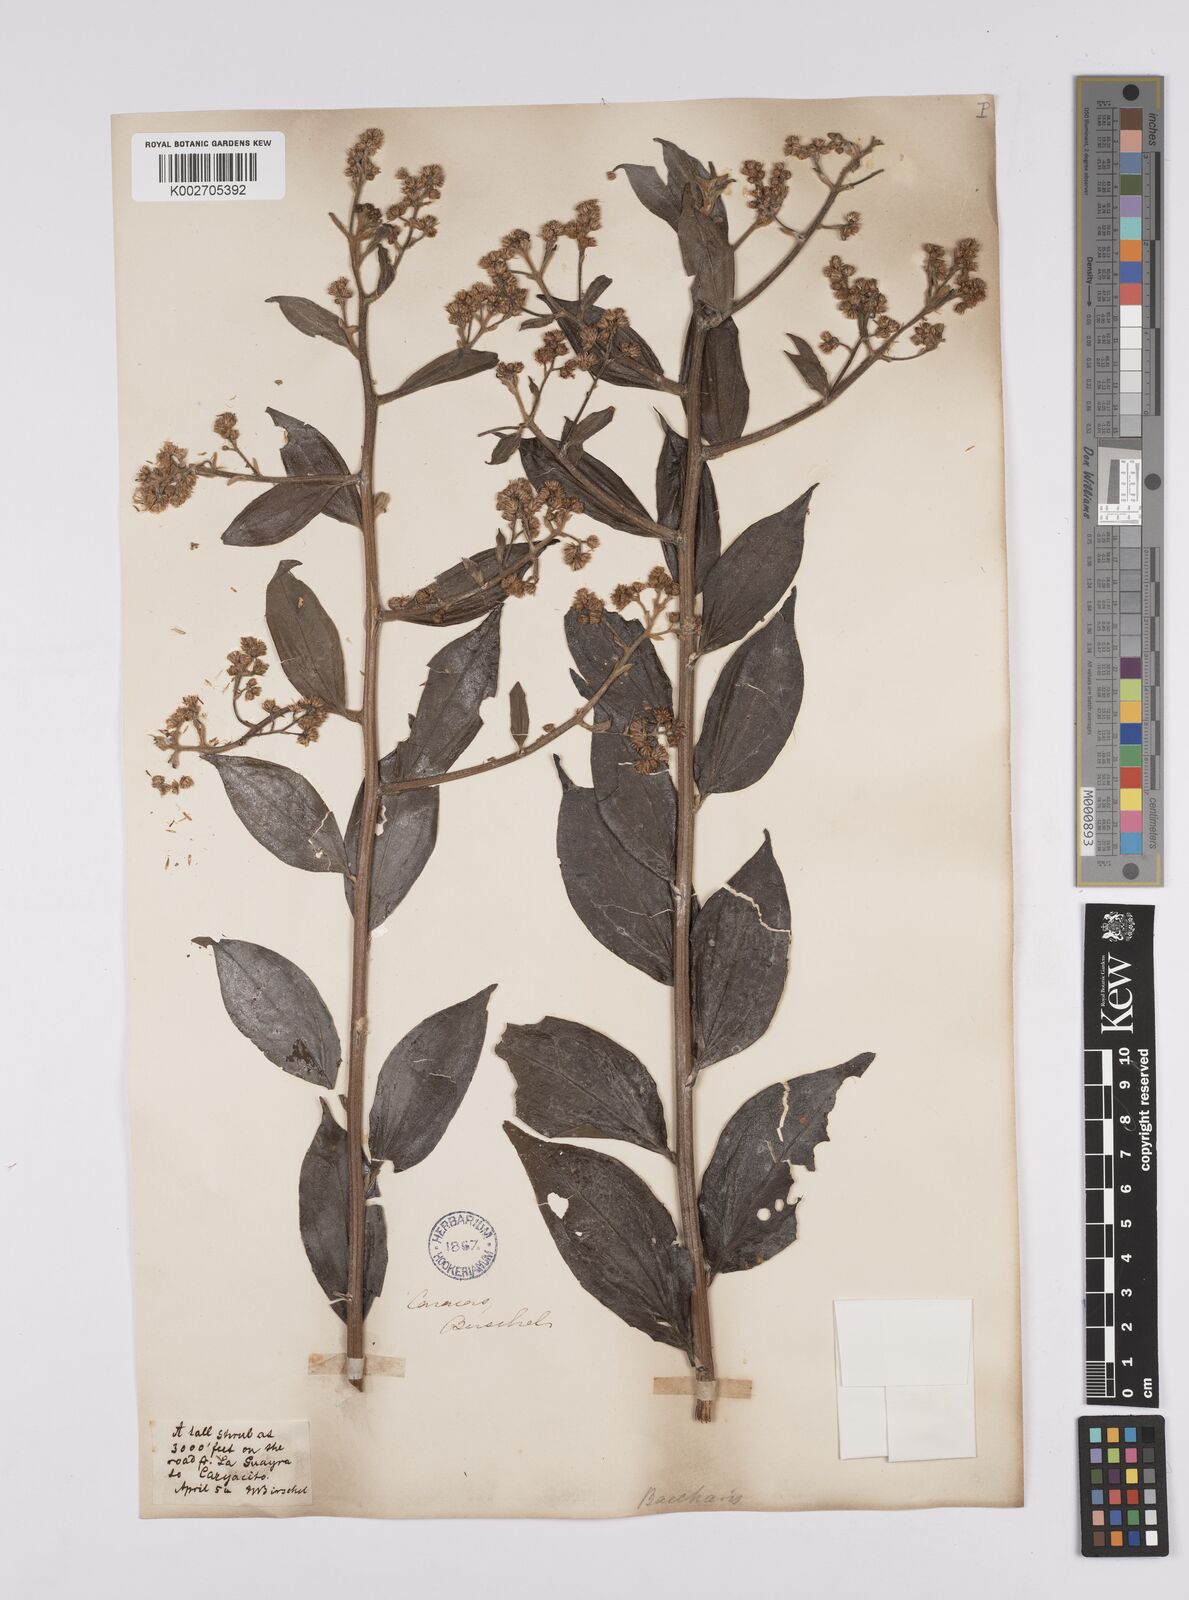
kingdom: Plantae
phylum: Tracheophyta
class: Magnoliopsida
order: Asterales
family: Asteraceae
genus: Baccharis
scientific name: Baccharis trinervis
